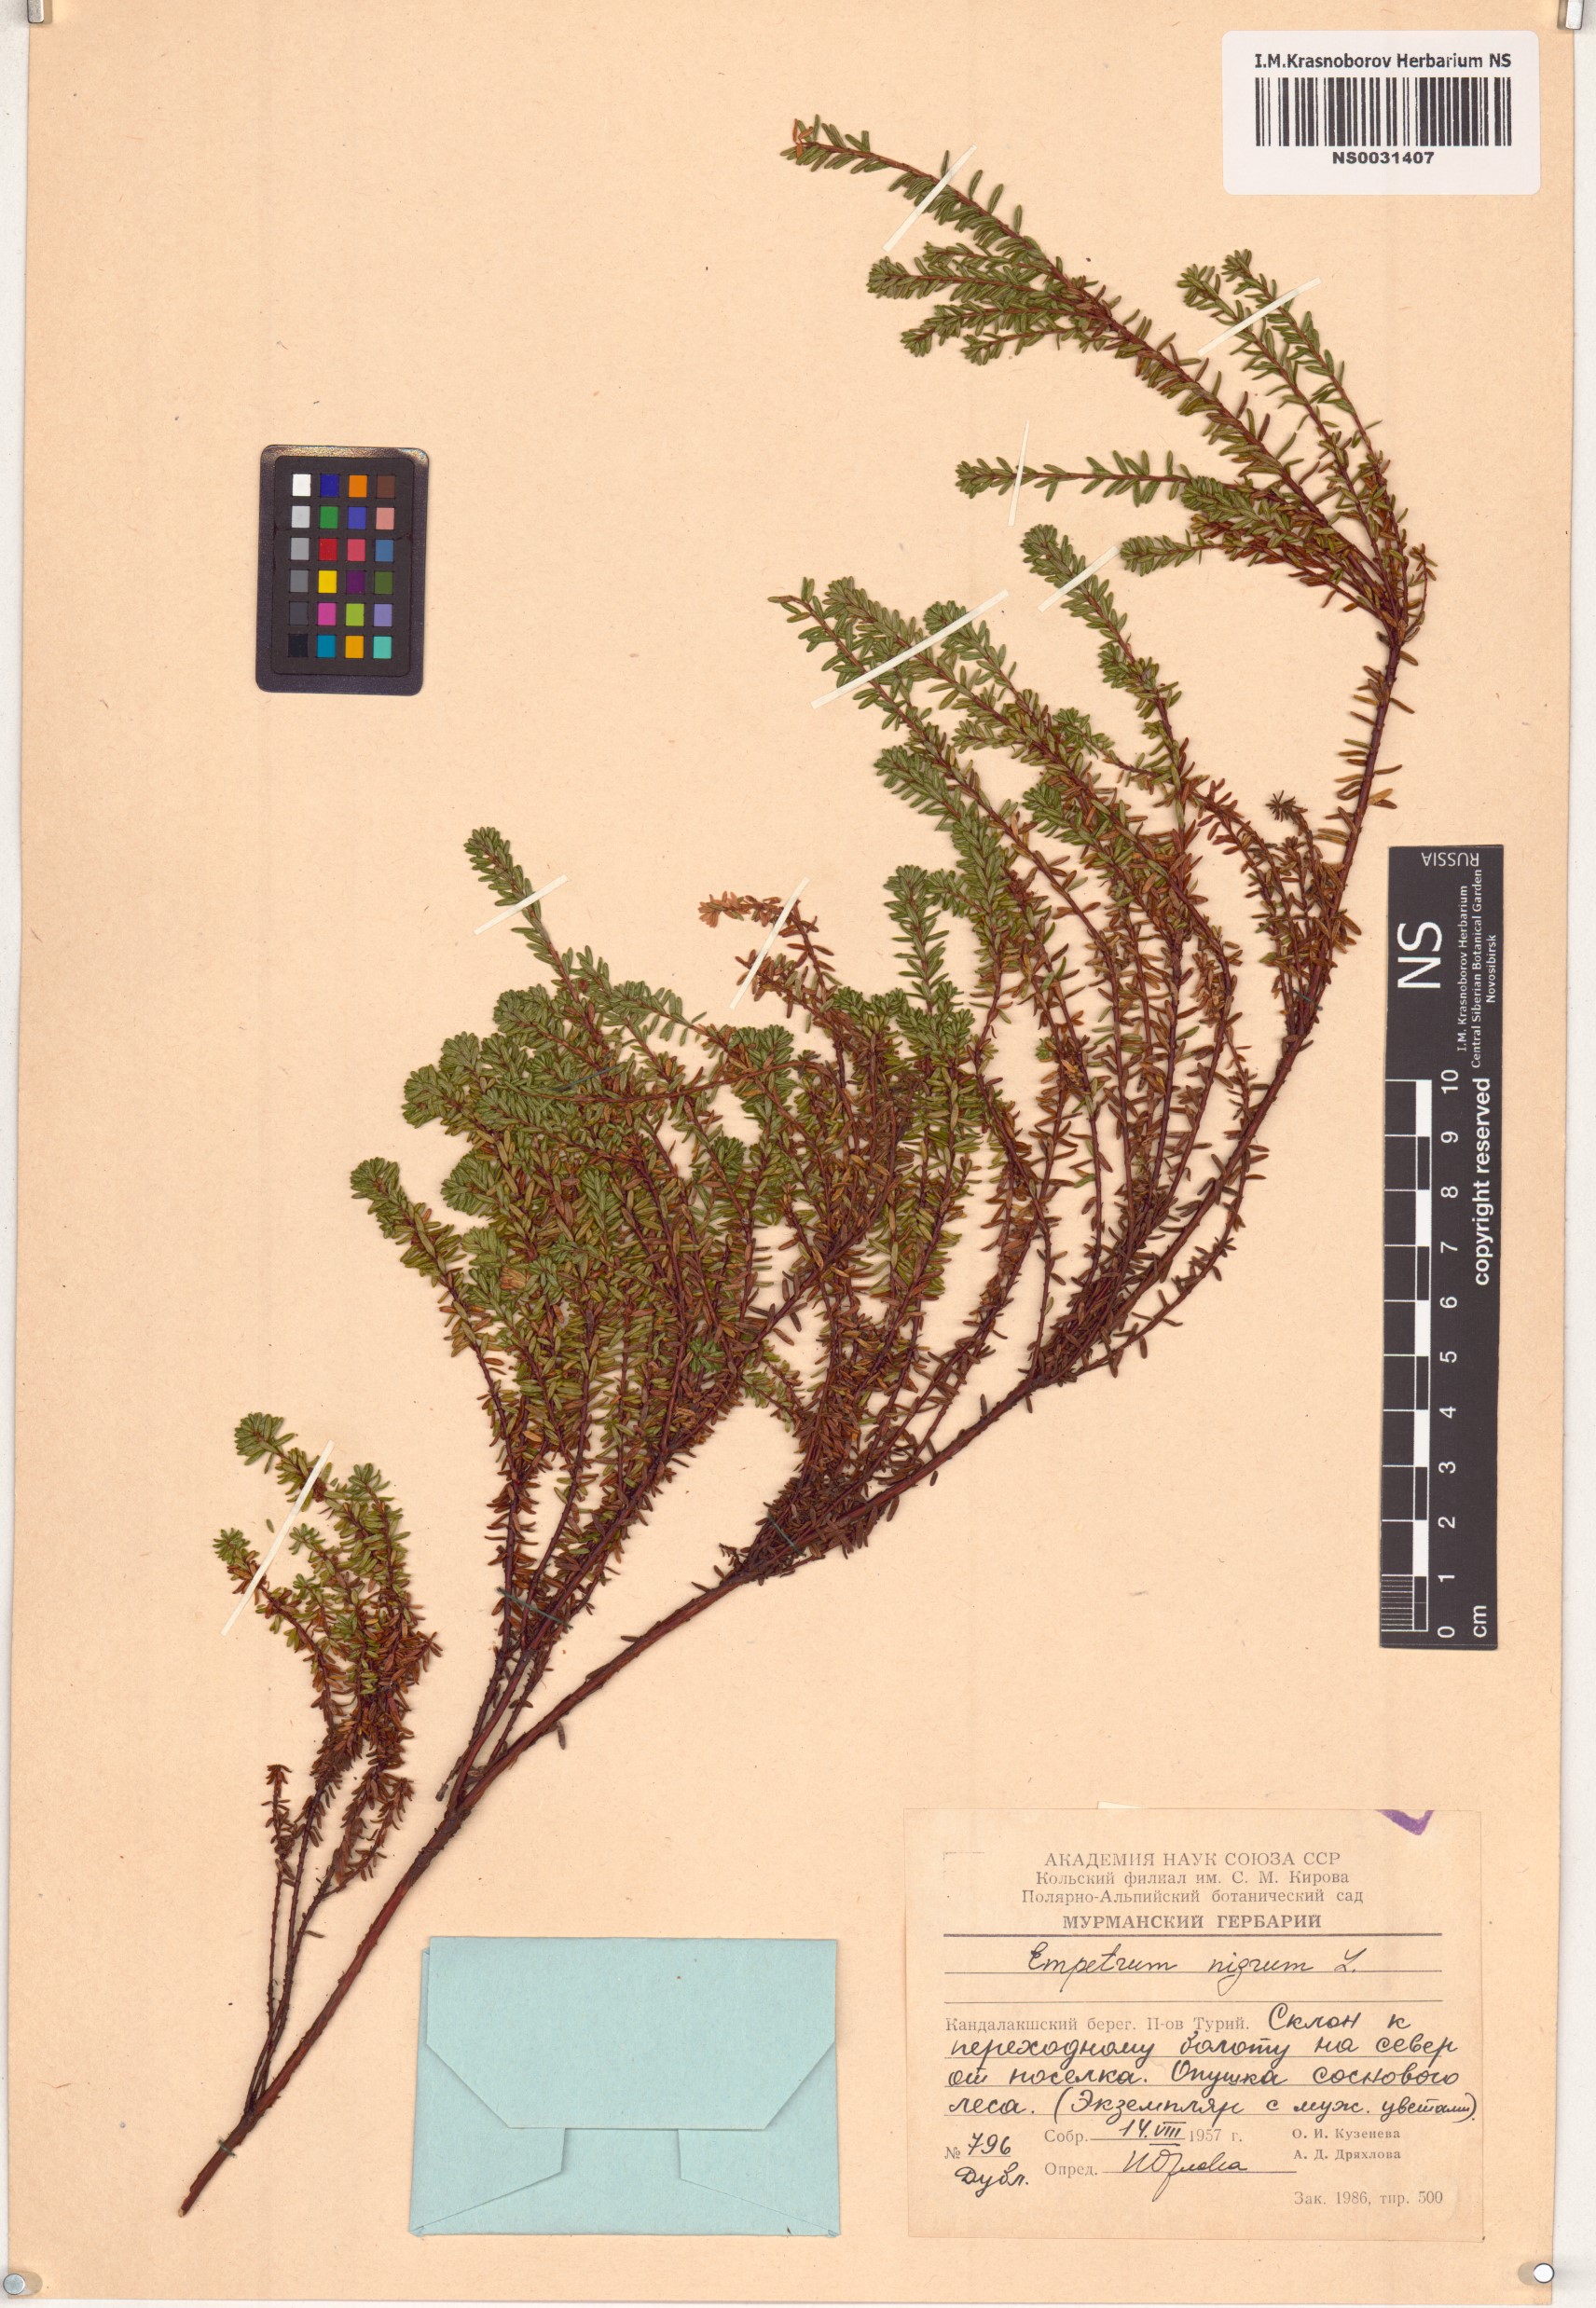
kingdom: Plantae
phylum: Tracheophyta
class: Magnoliopsida
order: Ericales
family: Ericaceae
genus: Empetrum
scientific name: Empetrum nigrum
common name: Black crowberry
